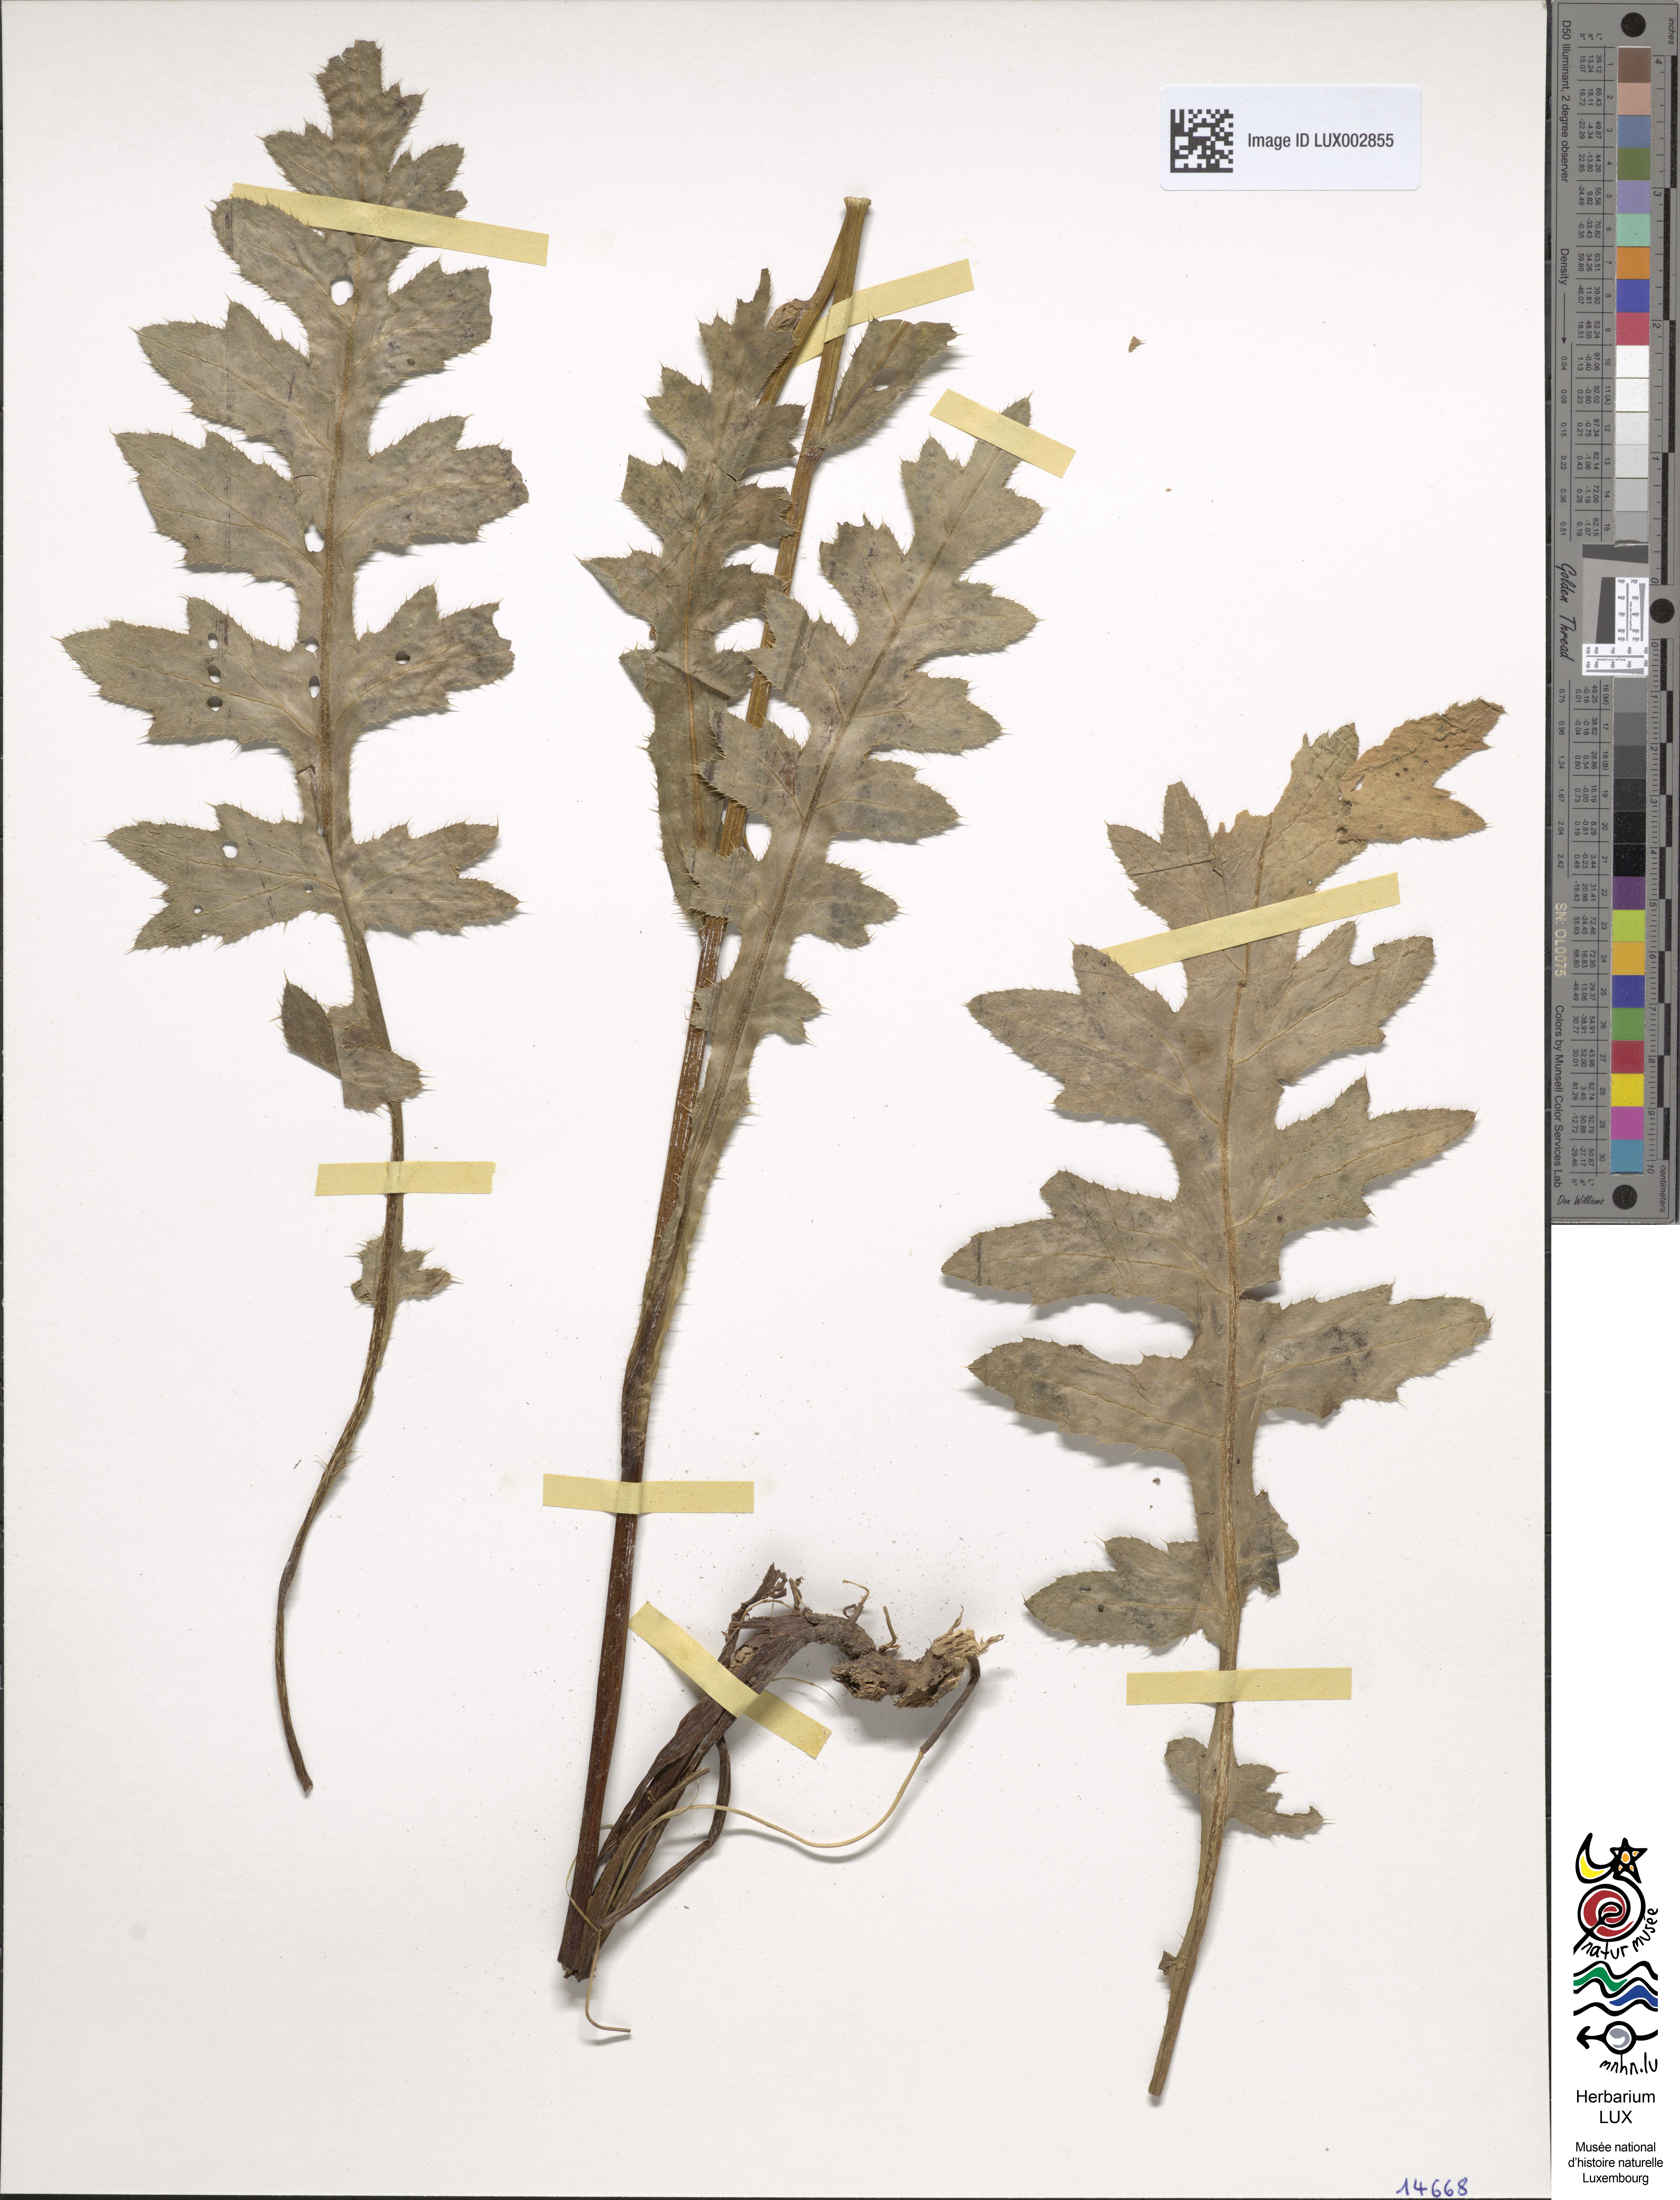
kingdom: Plantae
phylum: Tracheophyta
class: Magnoliopsida
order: Asterales
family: Asteraceae
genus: Cirsium
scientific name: Cirsium rigens
